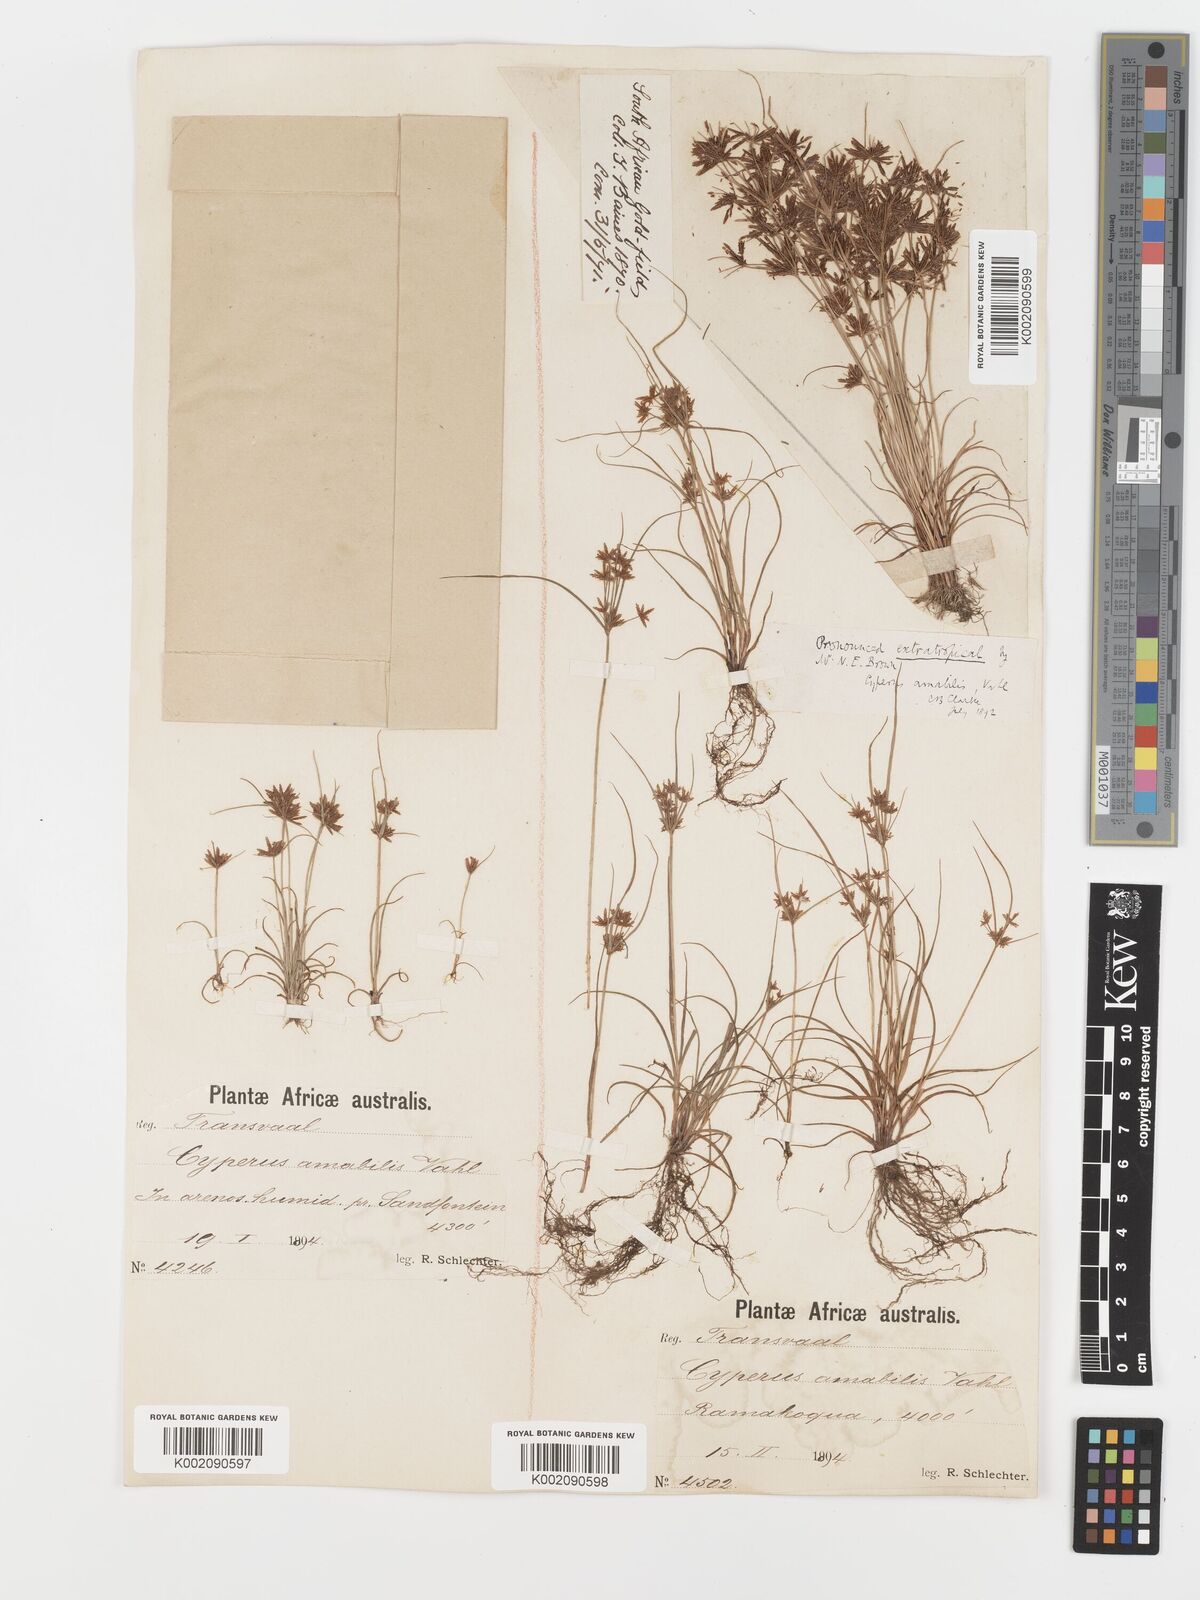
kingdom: Plantae
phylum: Tracheophyta
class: Liliopsida
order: Poales
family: Cyperaceae
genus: Cyperus
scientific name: Cyperus amabilis
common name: Foothill flat sedge
